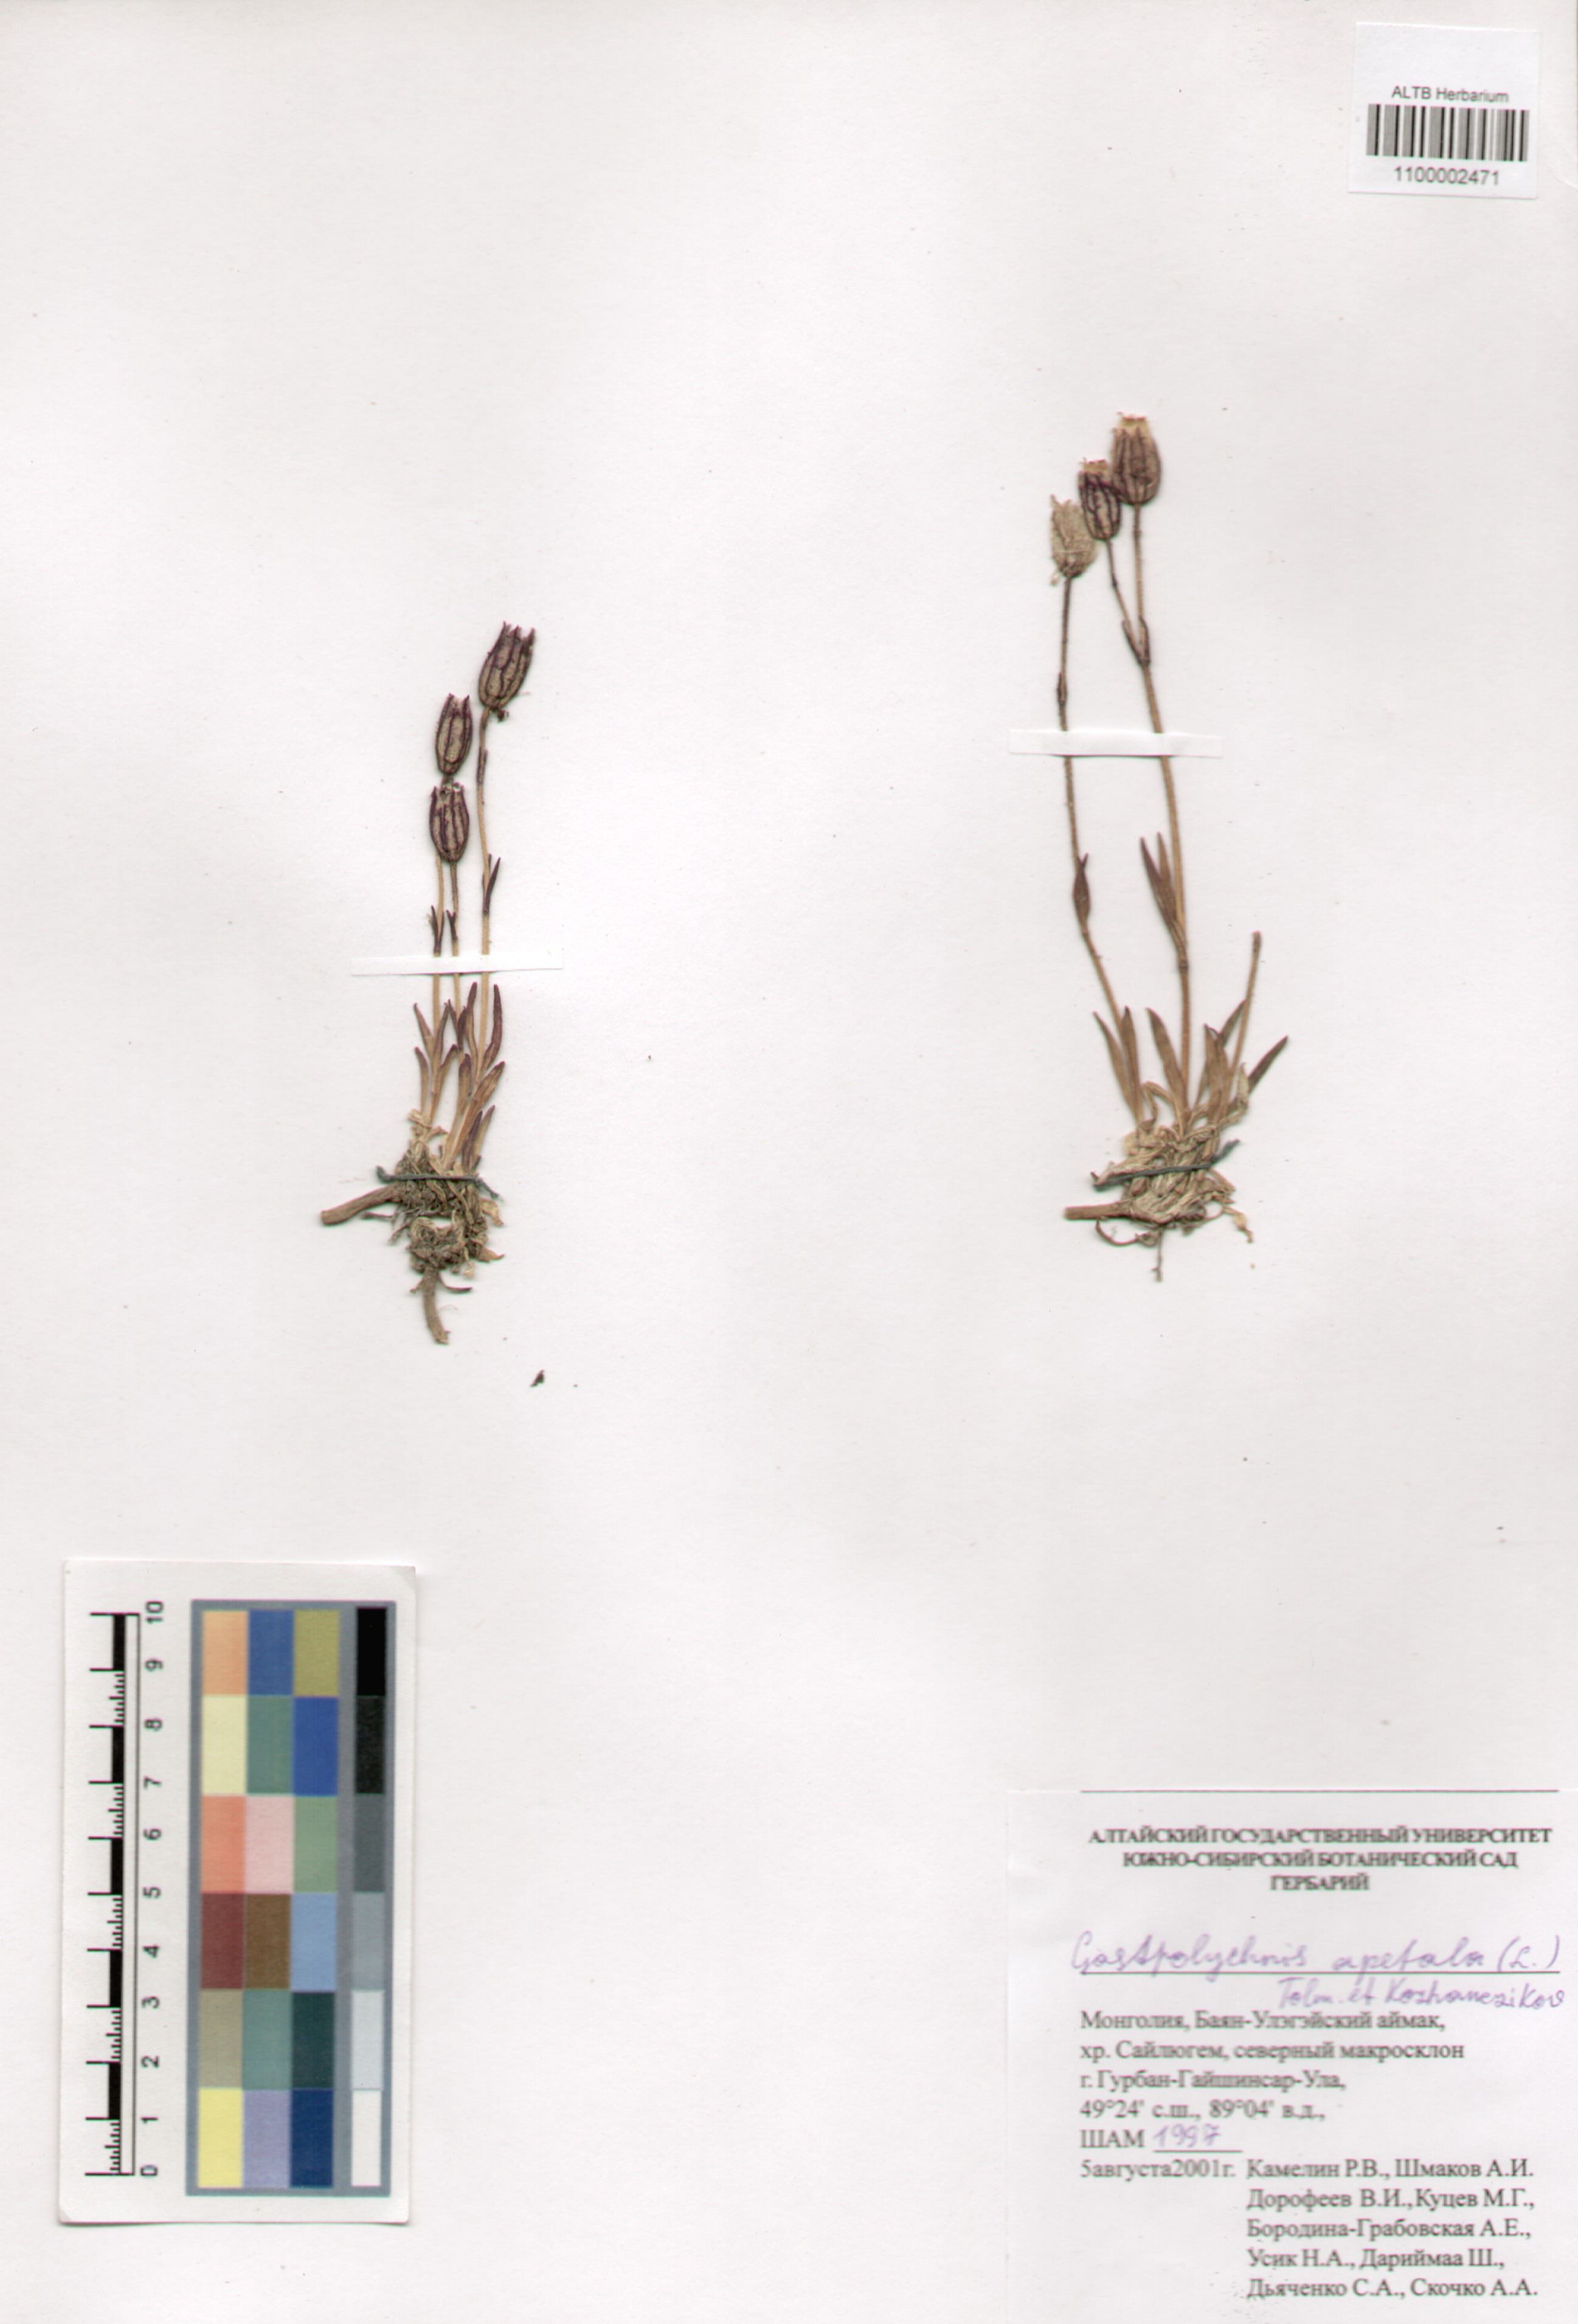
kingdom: Plantae
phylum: Tracheophyta
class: Magnoliopsida
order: Caryophyllales
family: Caryophyllaceae
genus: Silene
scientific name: Silene wahlbergella
